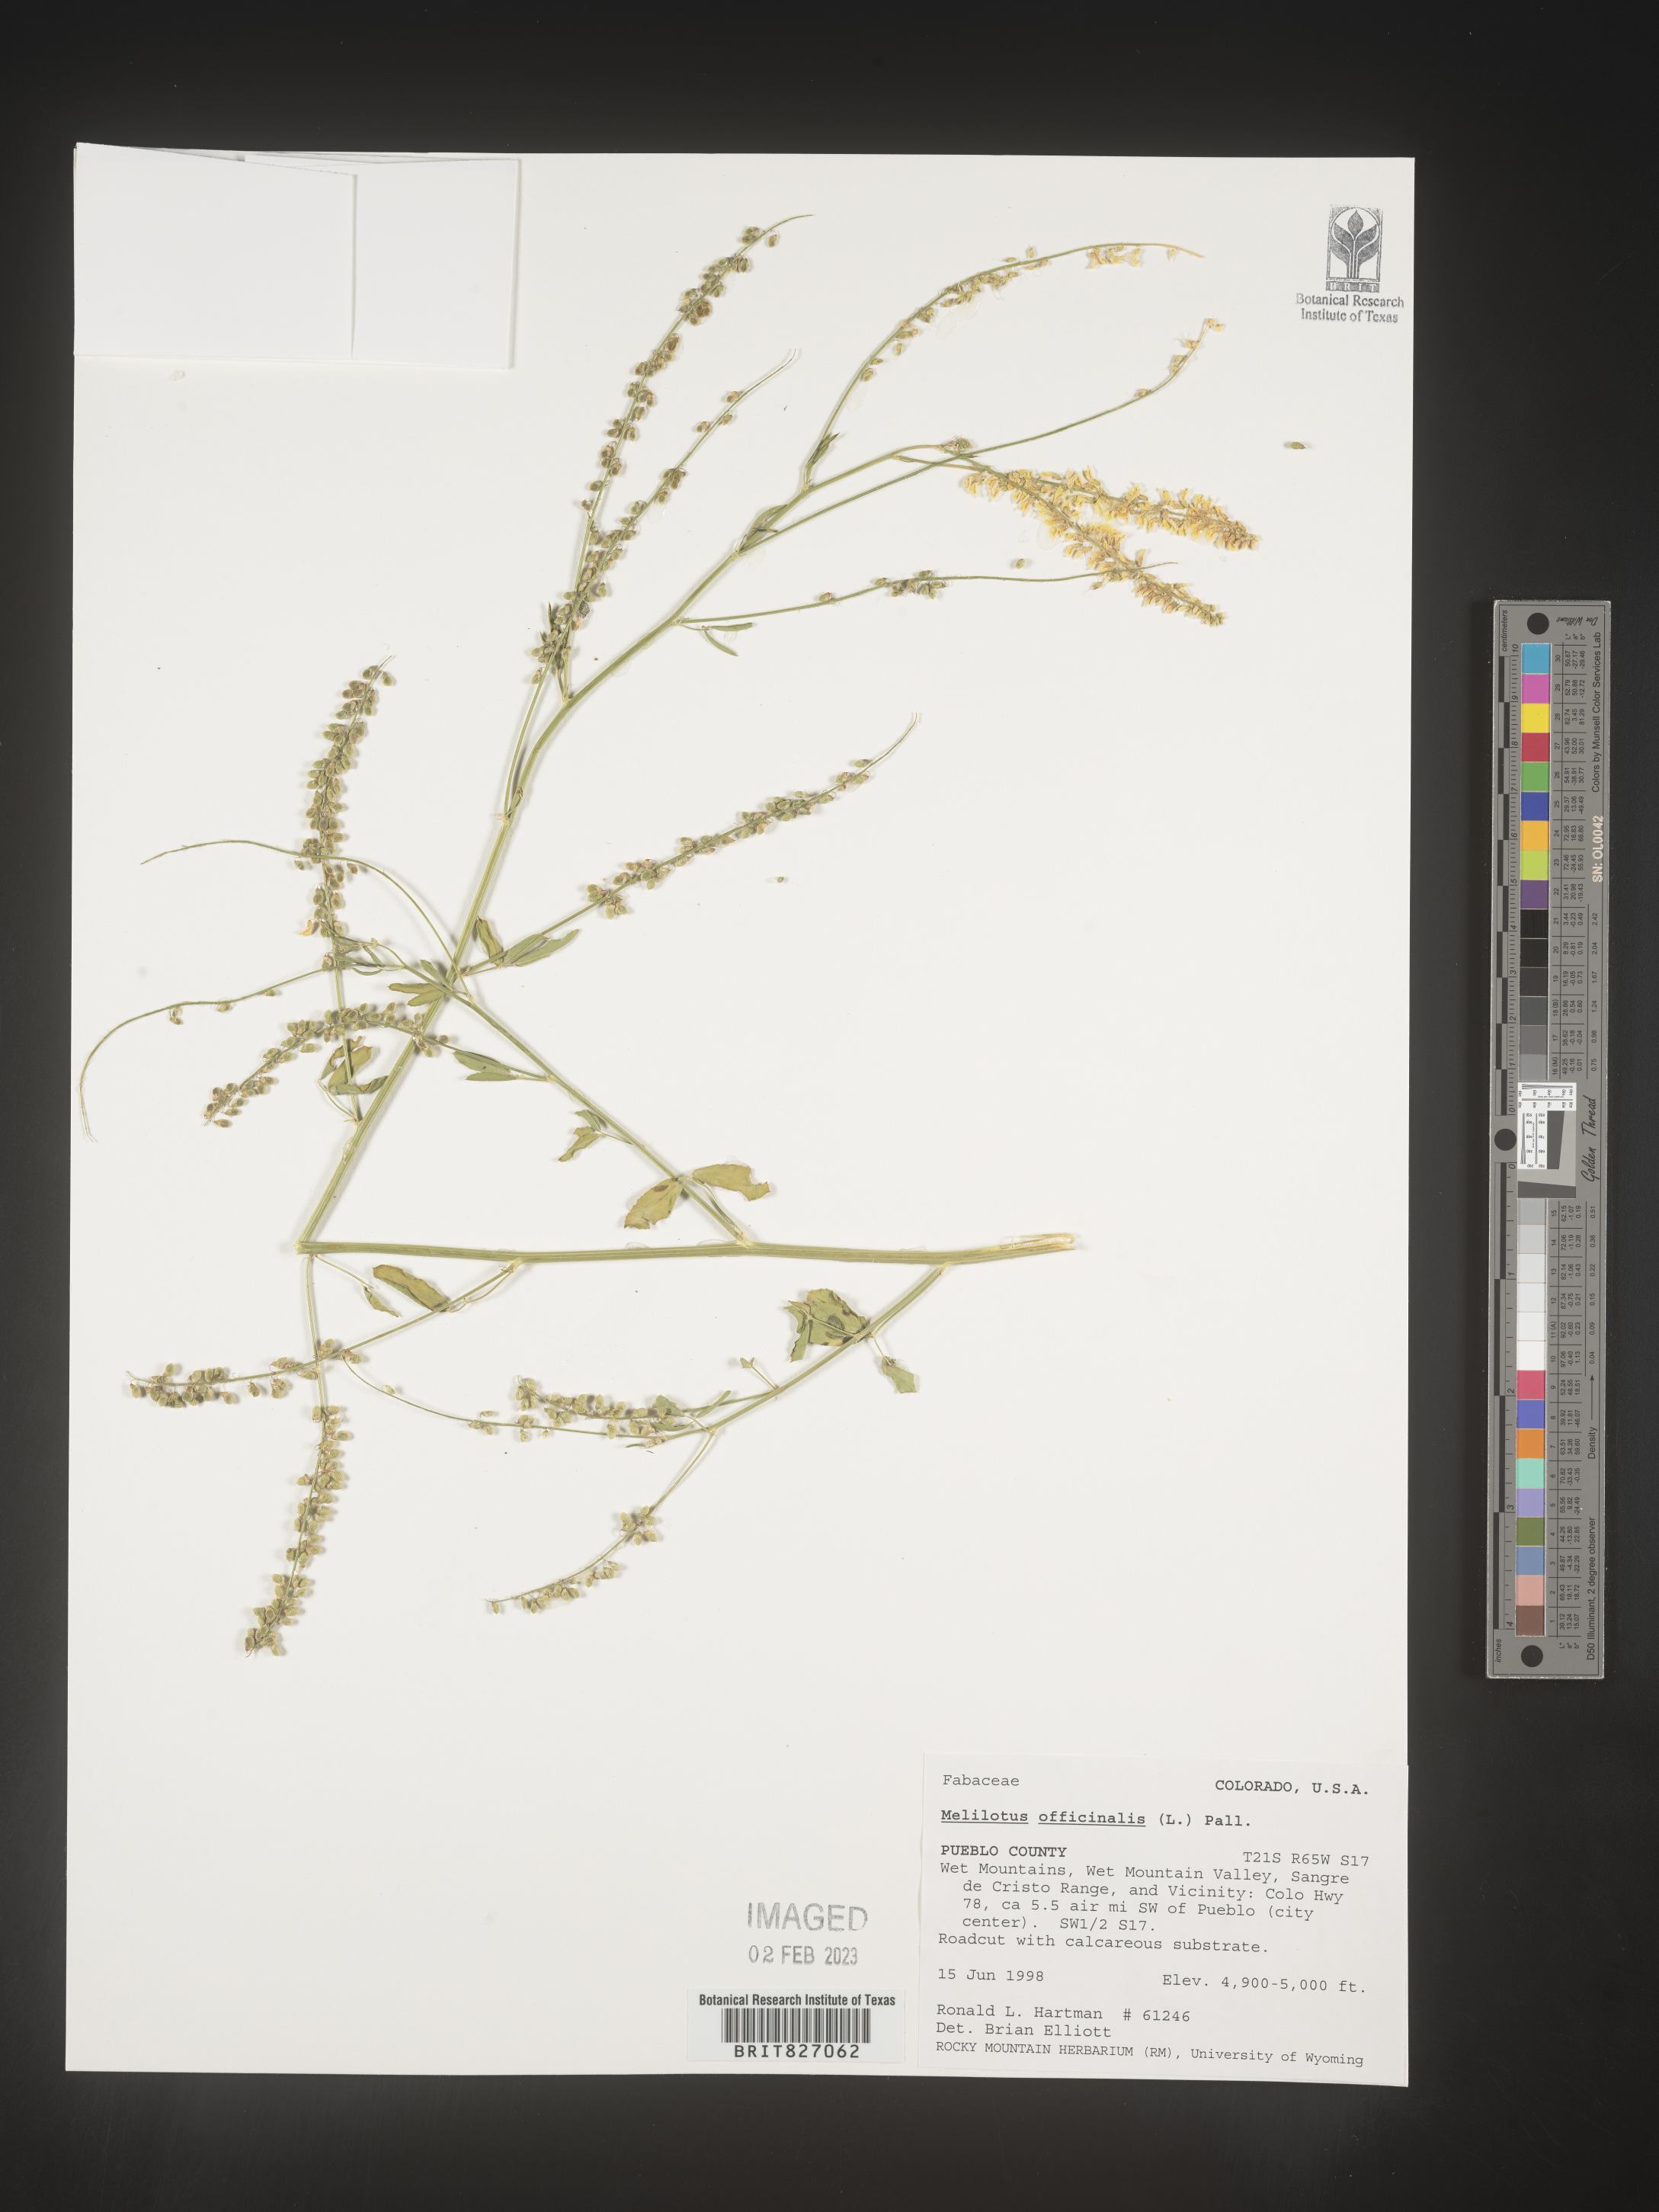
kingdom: Plantae
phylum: Tracheophyta
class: Magnoliopsida
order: Fabales
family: Fabaceae
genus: Melilotus
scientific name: Melilotus officinalis
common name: Sweetclover
